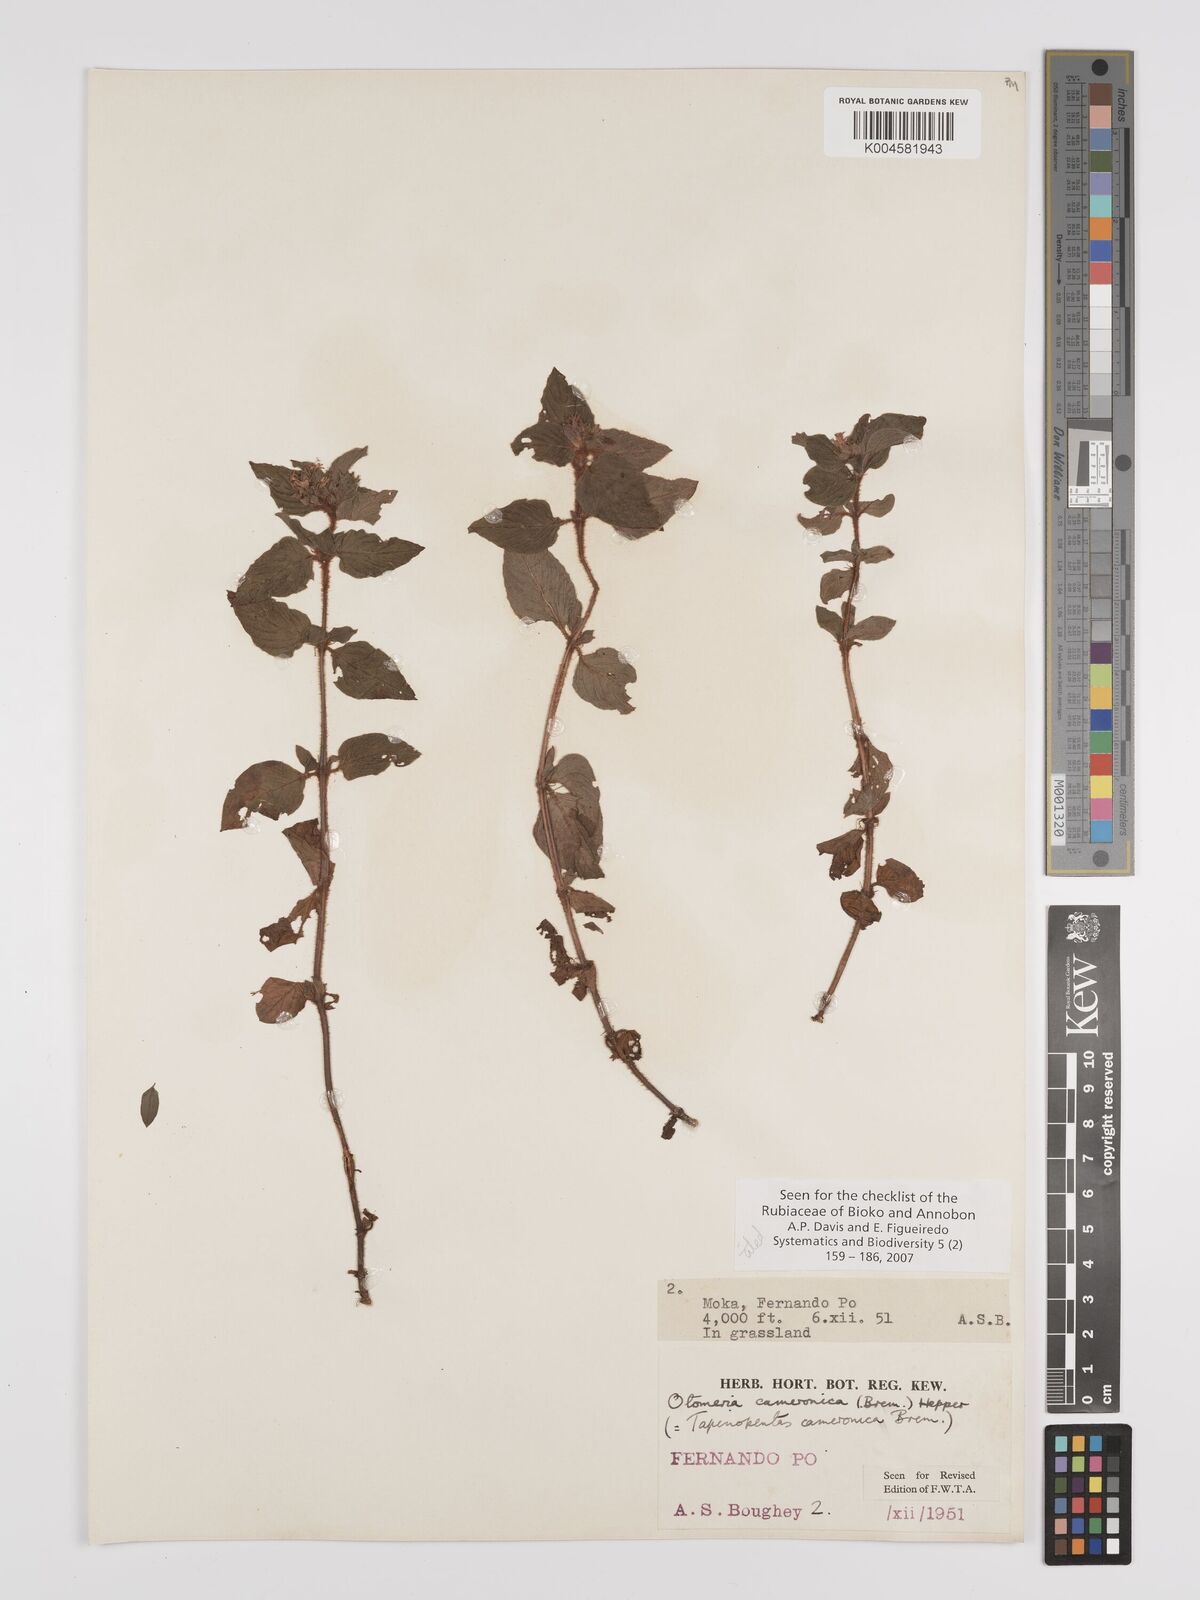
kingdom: Plantae
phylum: Tracheophyta
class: Magnoliopsida
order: Gentianales
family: Rubiaceae
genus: Otomeria
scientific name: Otomeria cameronica
